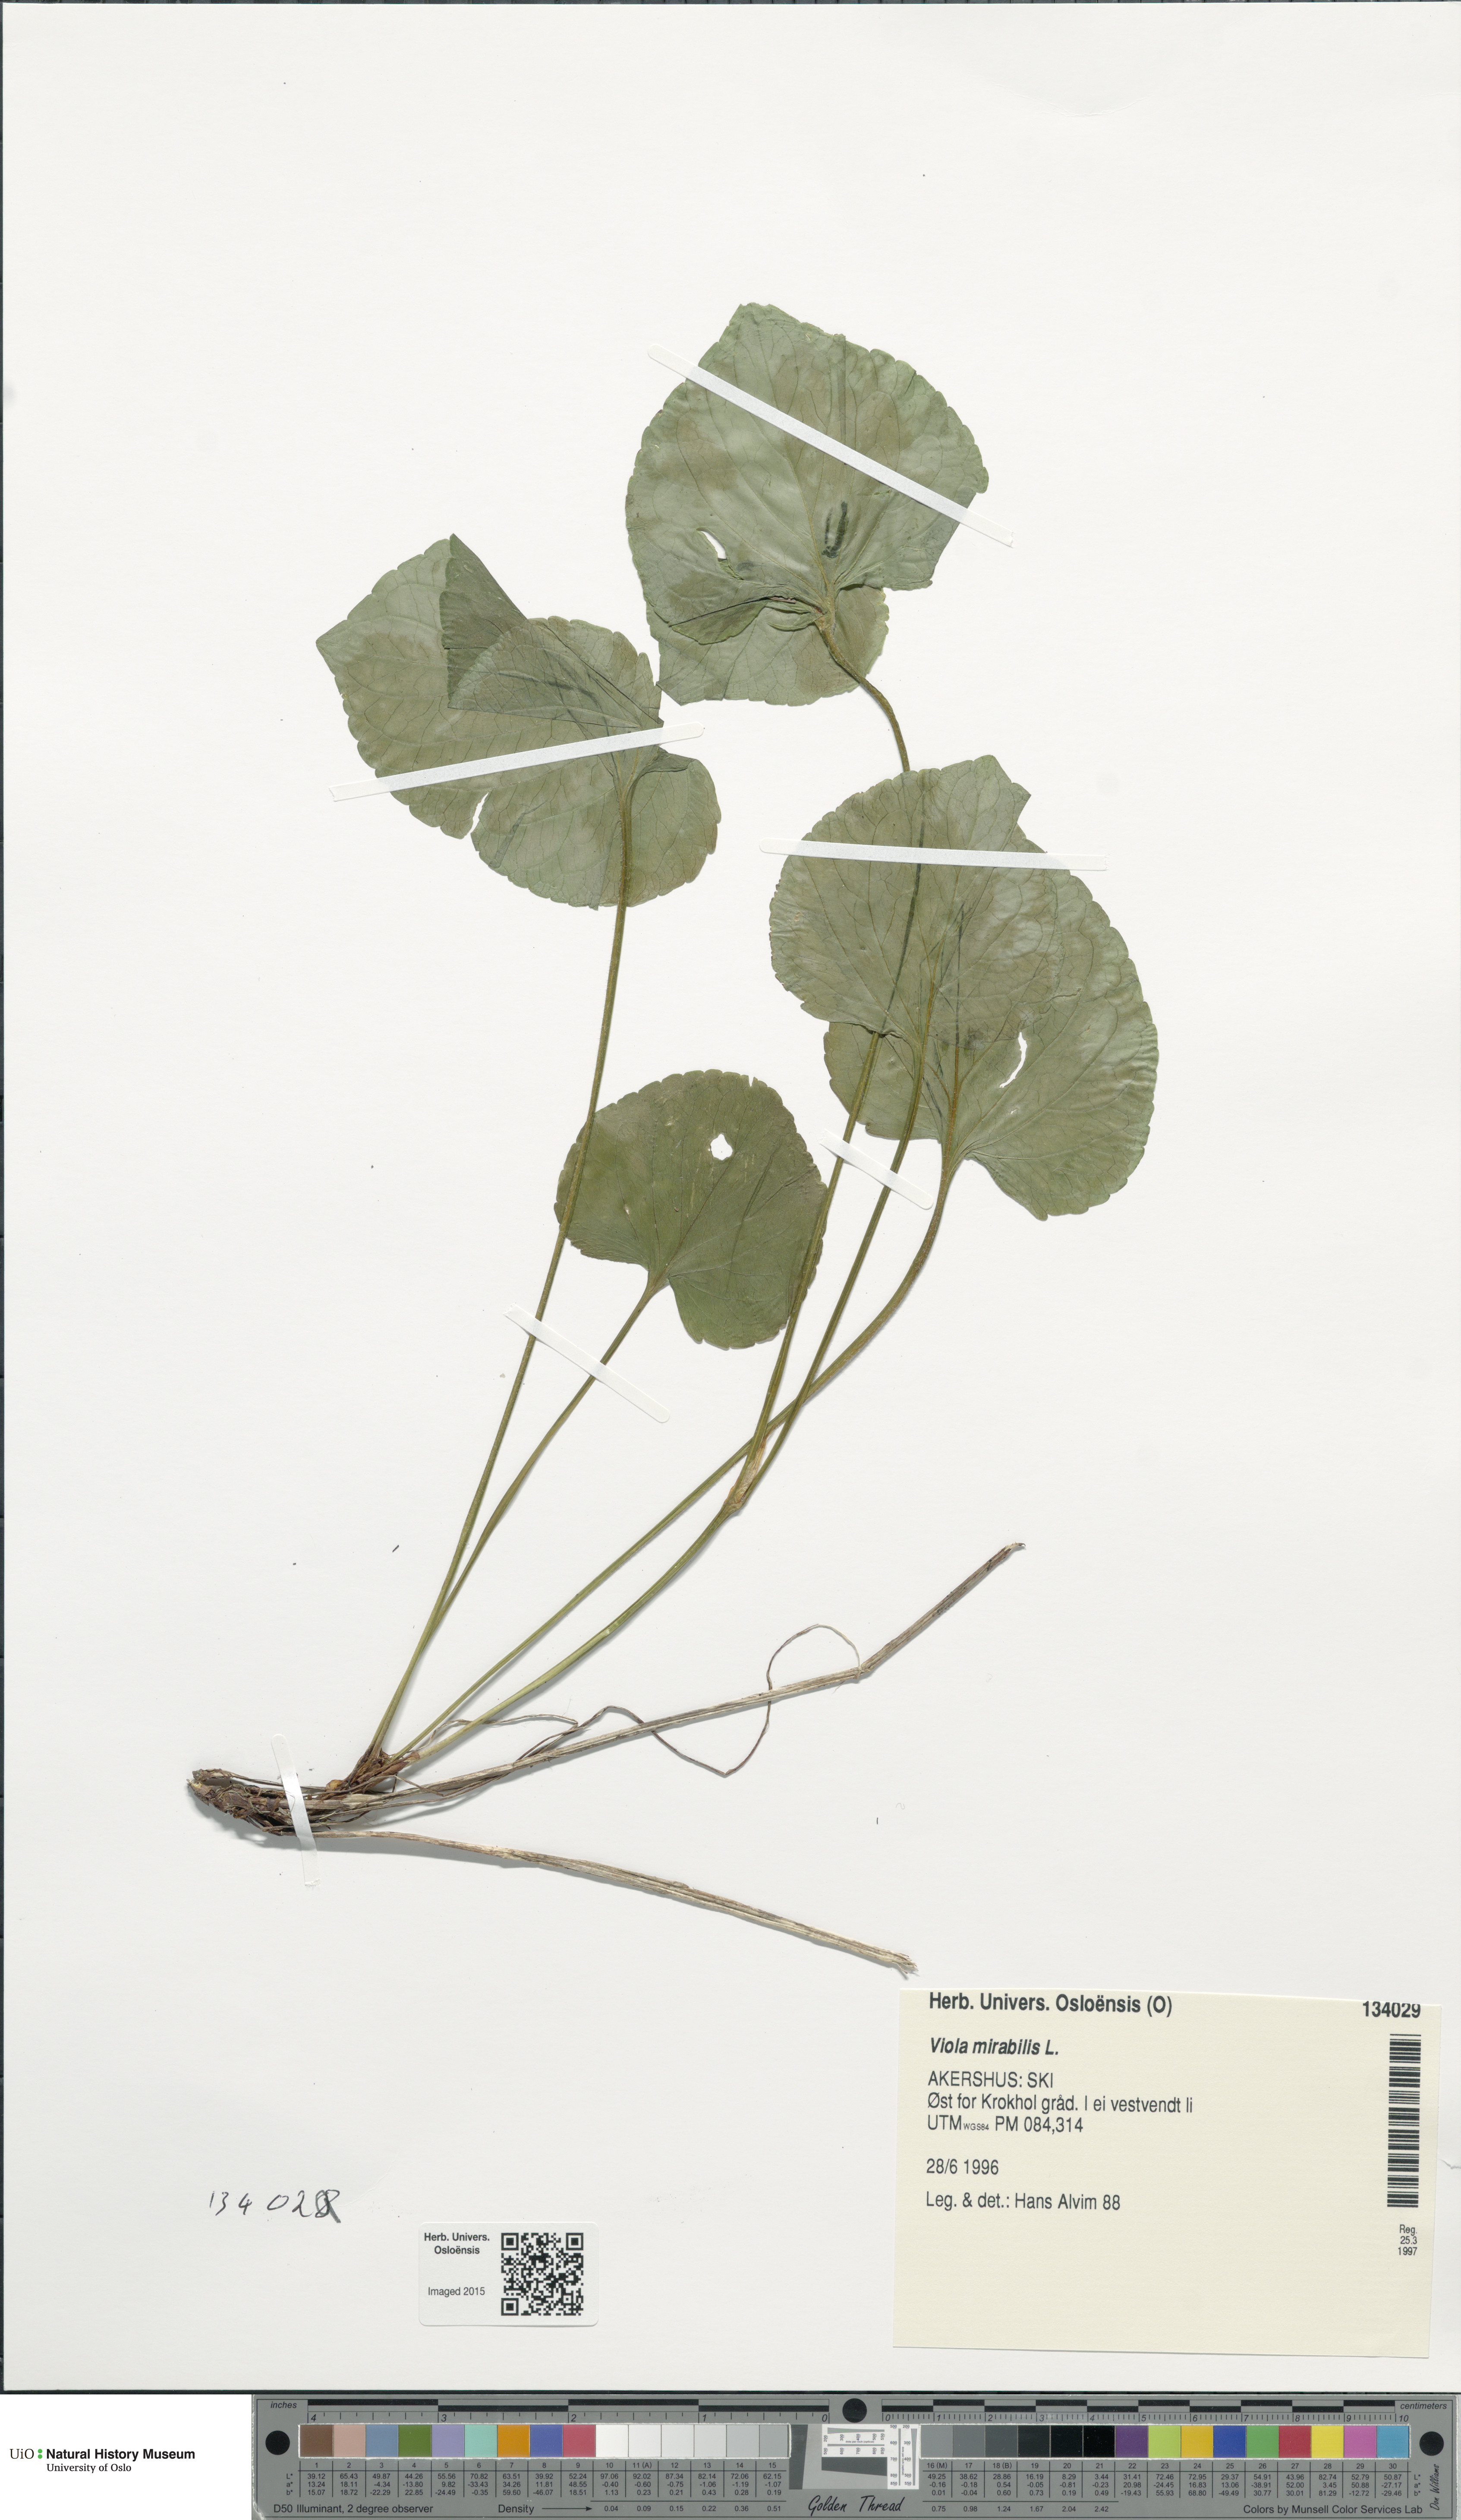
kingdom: Plantae
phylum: Tracheophyta
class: Magnoliopsida
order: Malpighiales
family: Violaceae
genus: Viola
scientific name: Viola mirabilis
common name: Wonder violet
